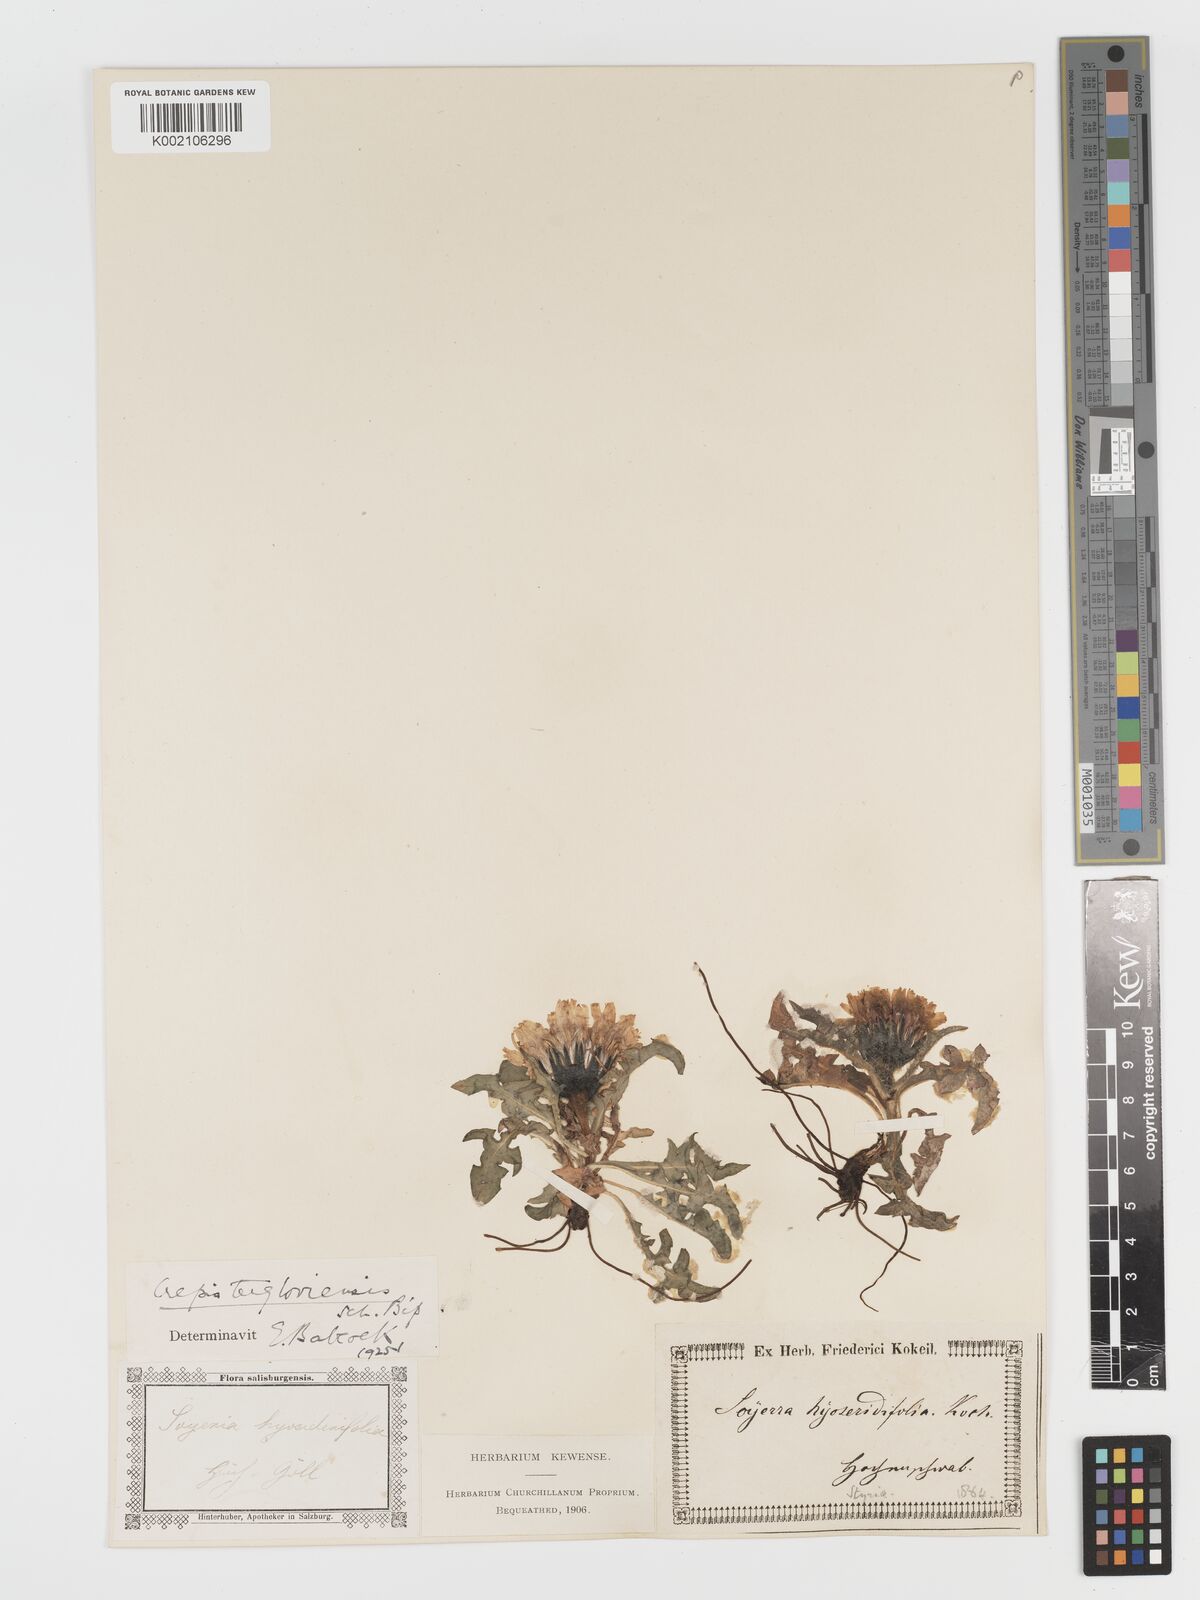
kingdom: Plantae
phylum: Tracheophyta
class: Magnoliopsida
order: Asterales
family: Asteraceae
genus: Crepis
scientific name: Crepis terglouensis
